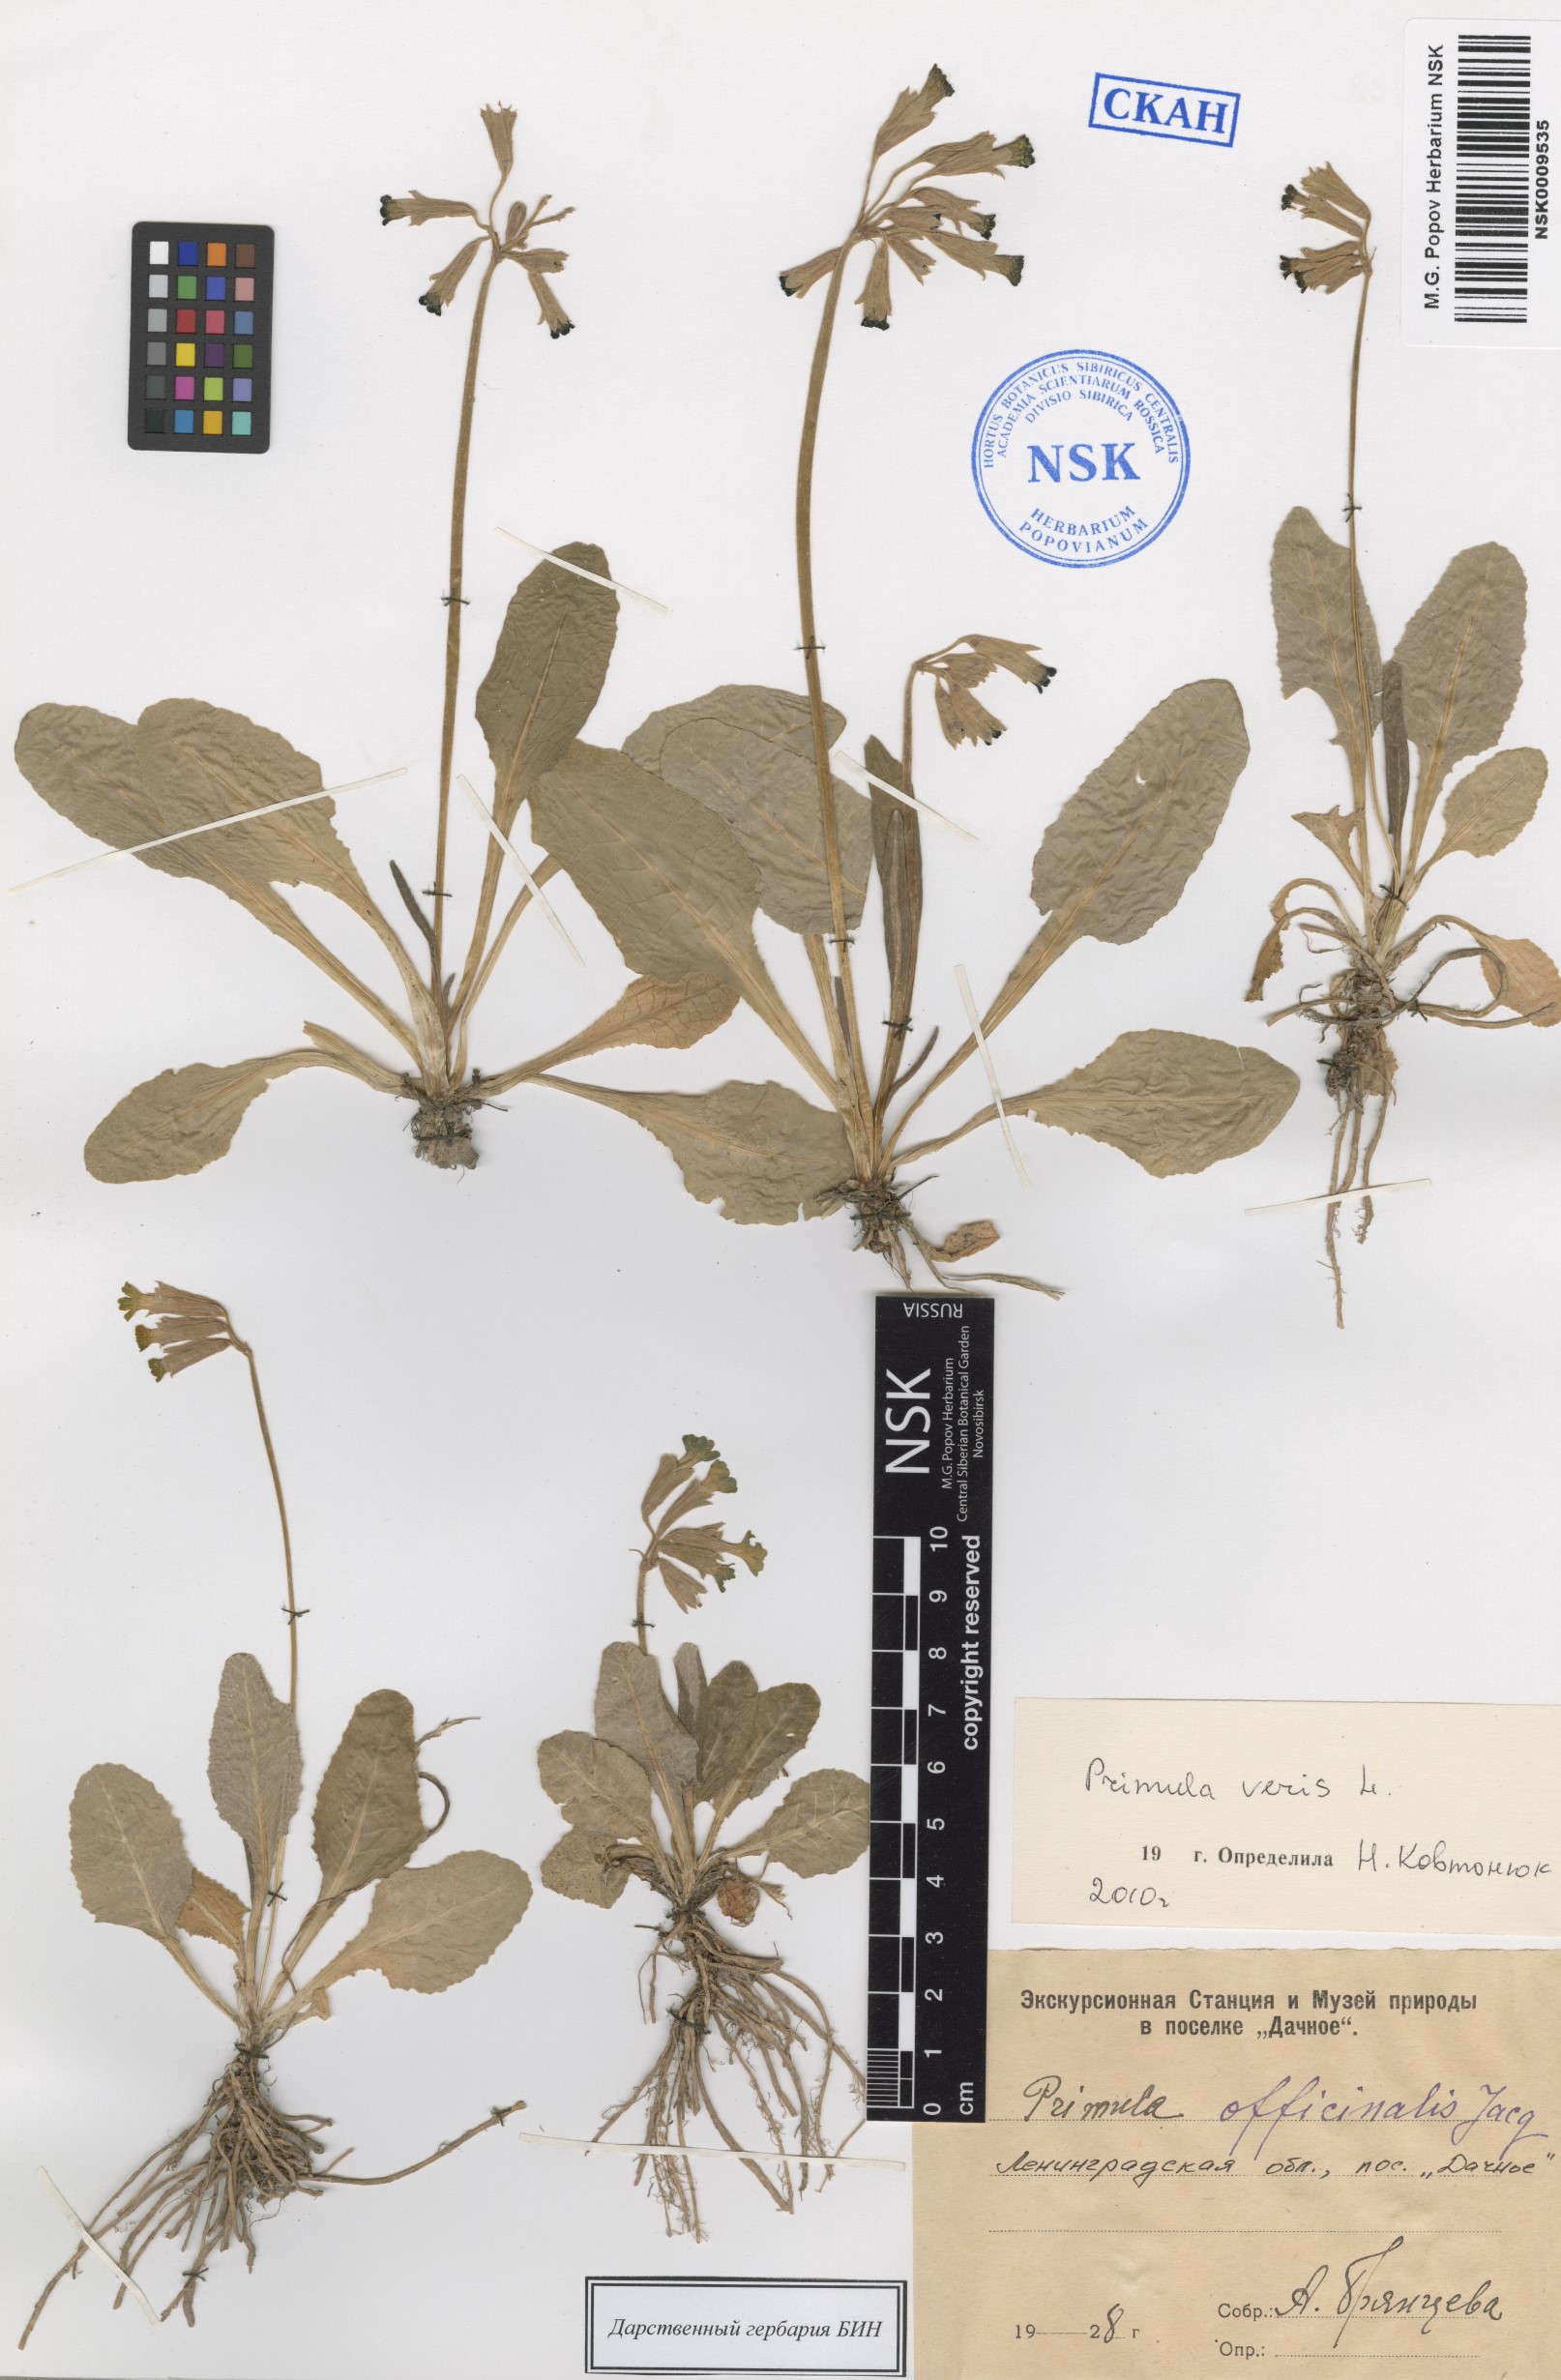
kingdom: Plantae
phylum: Tracheophyta
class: Magnoliopsida
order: Ericales
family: Primulaceae
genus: Primula
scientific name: Primula veris
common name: Cowslip
